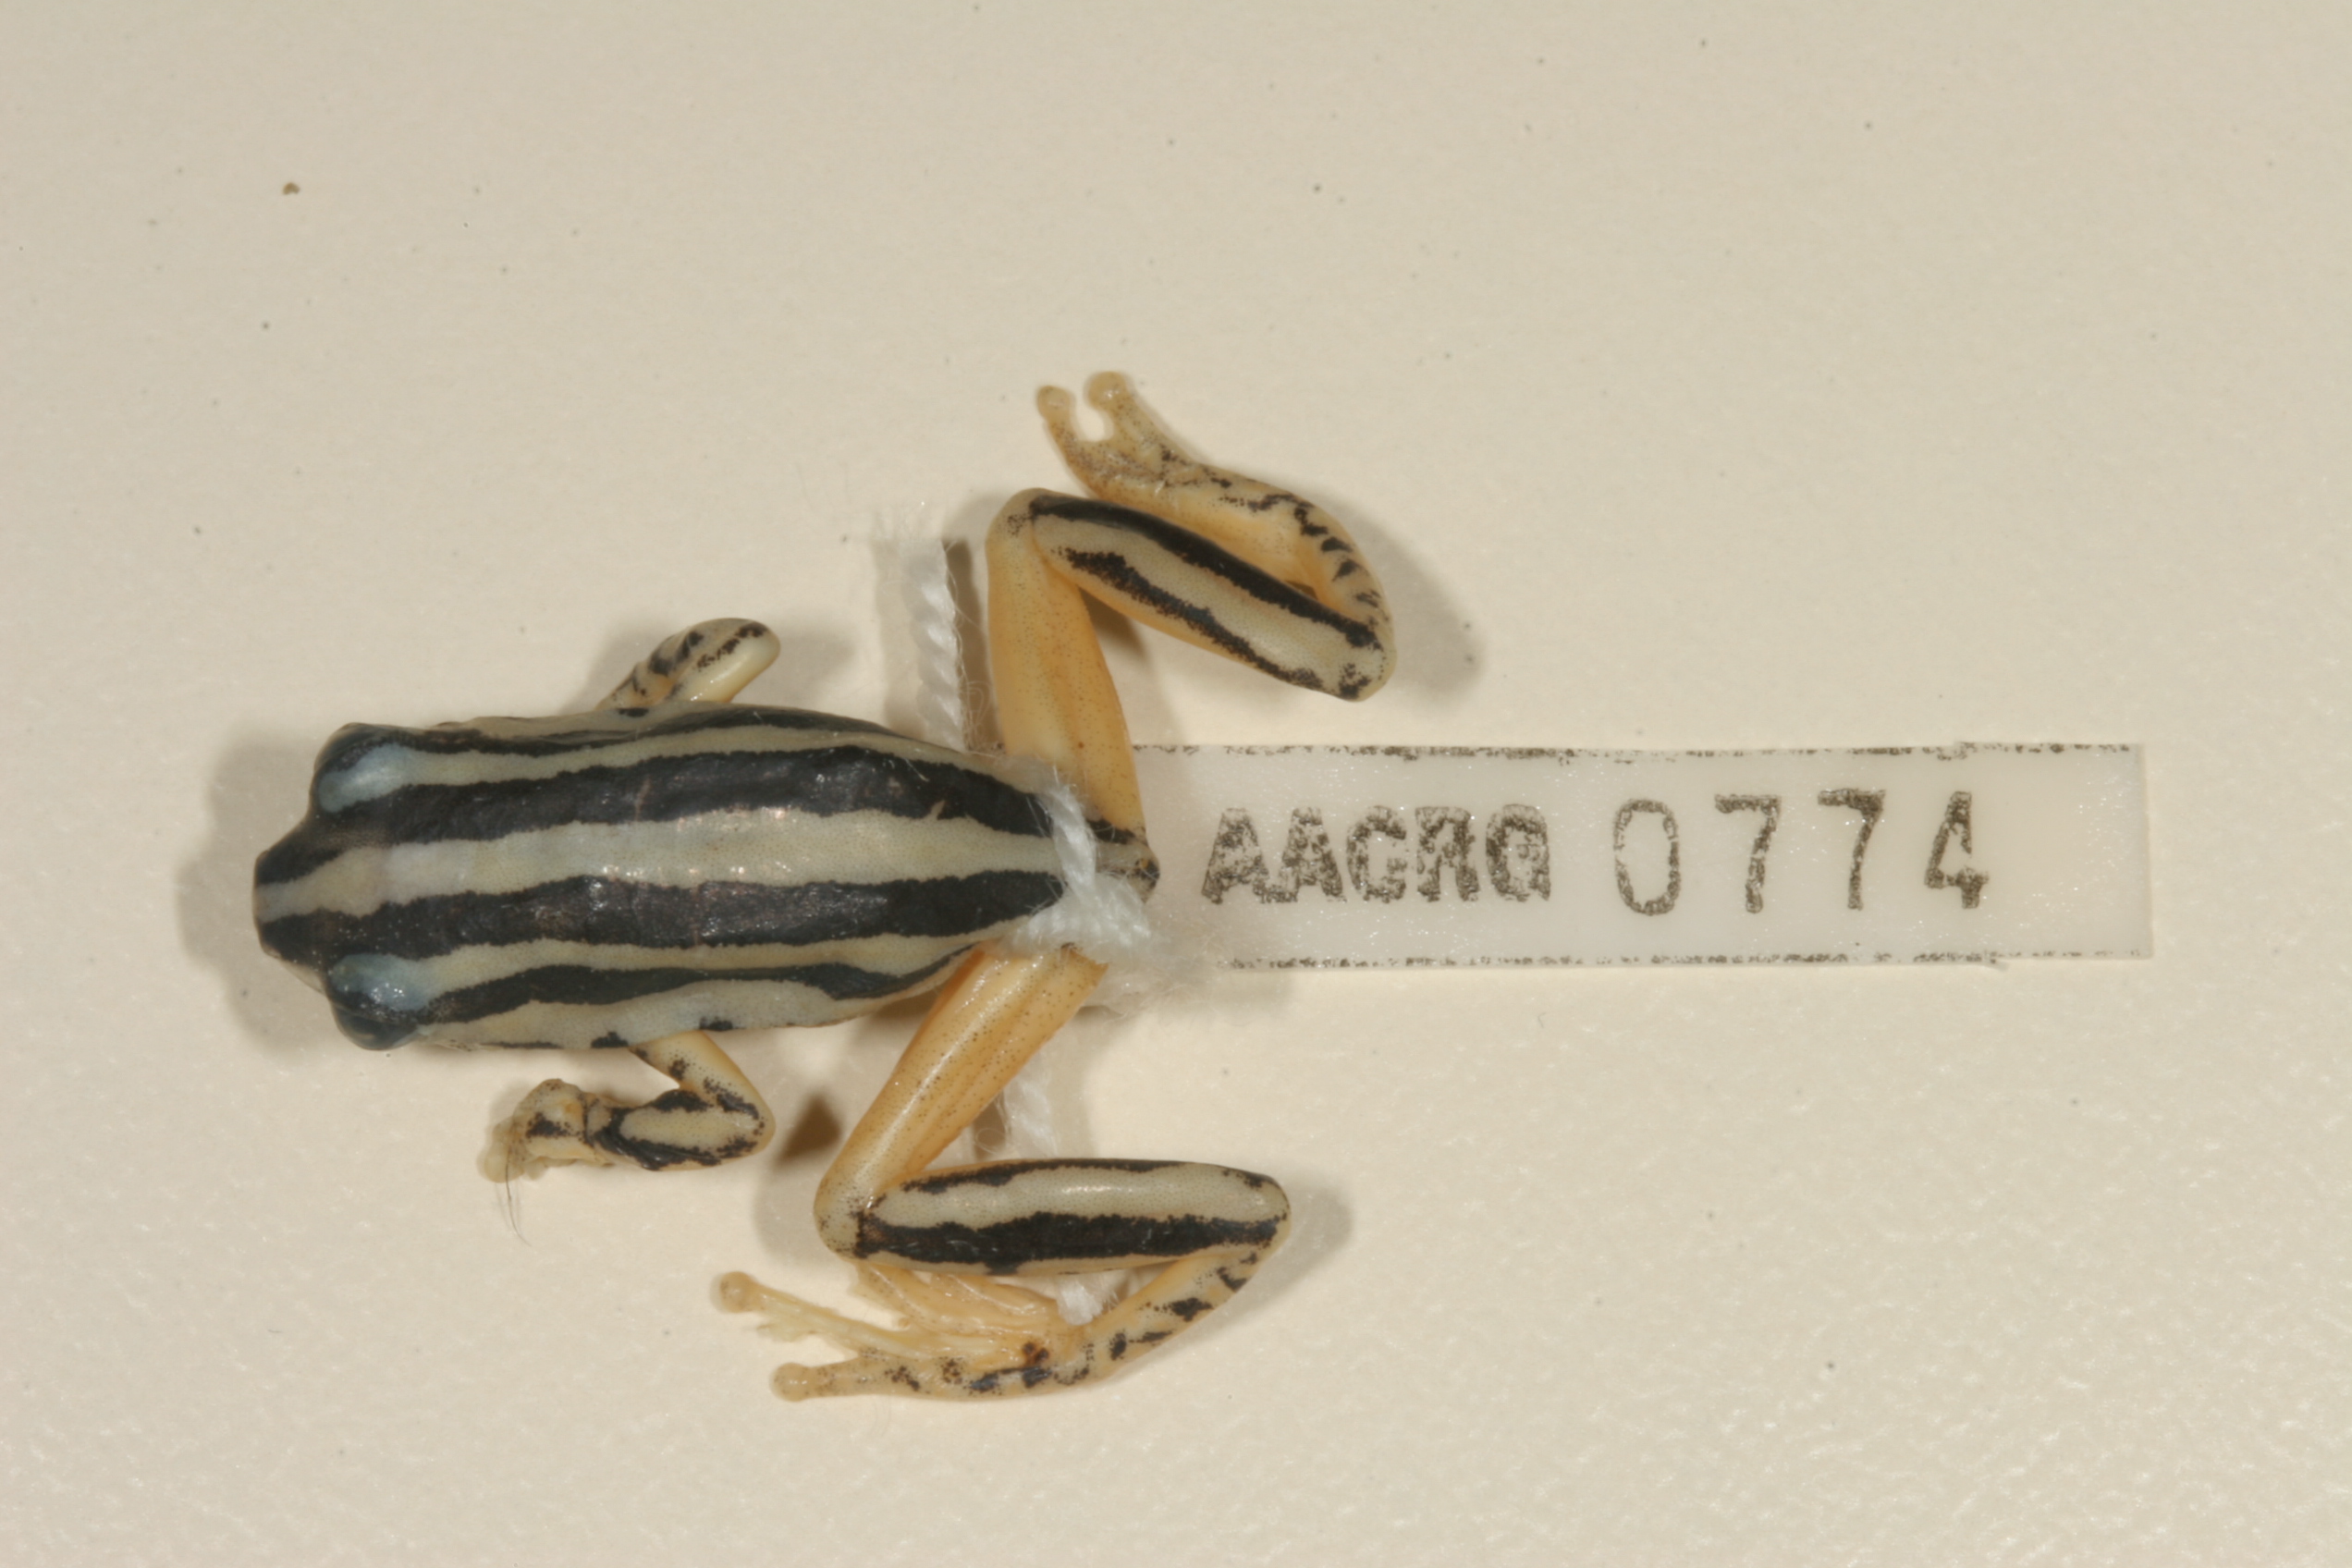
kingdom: Animalia
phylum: Chordata
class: Amphibia
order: Anura
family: Hyperoliidae
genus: Hyperolius
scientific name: Hyperolius marmoratus
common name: Painted reed frog
